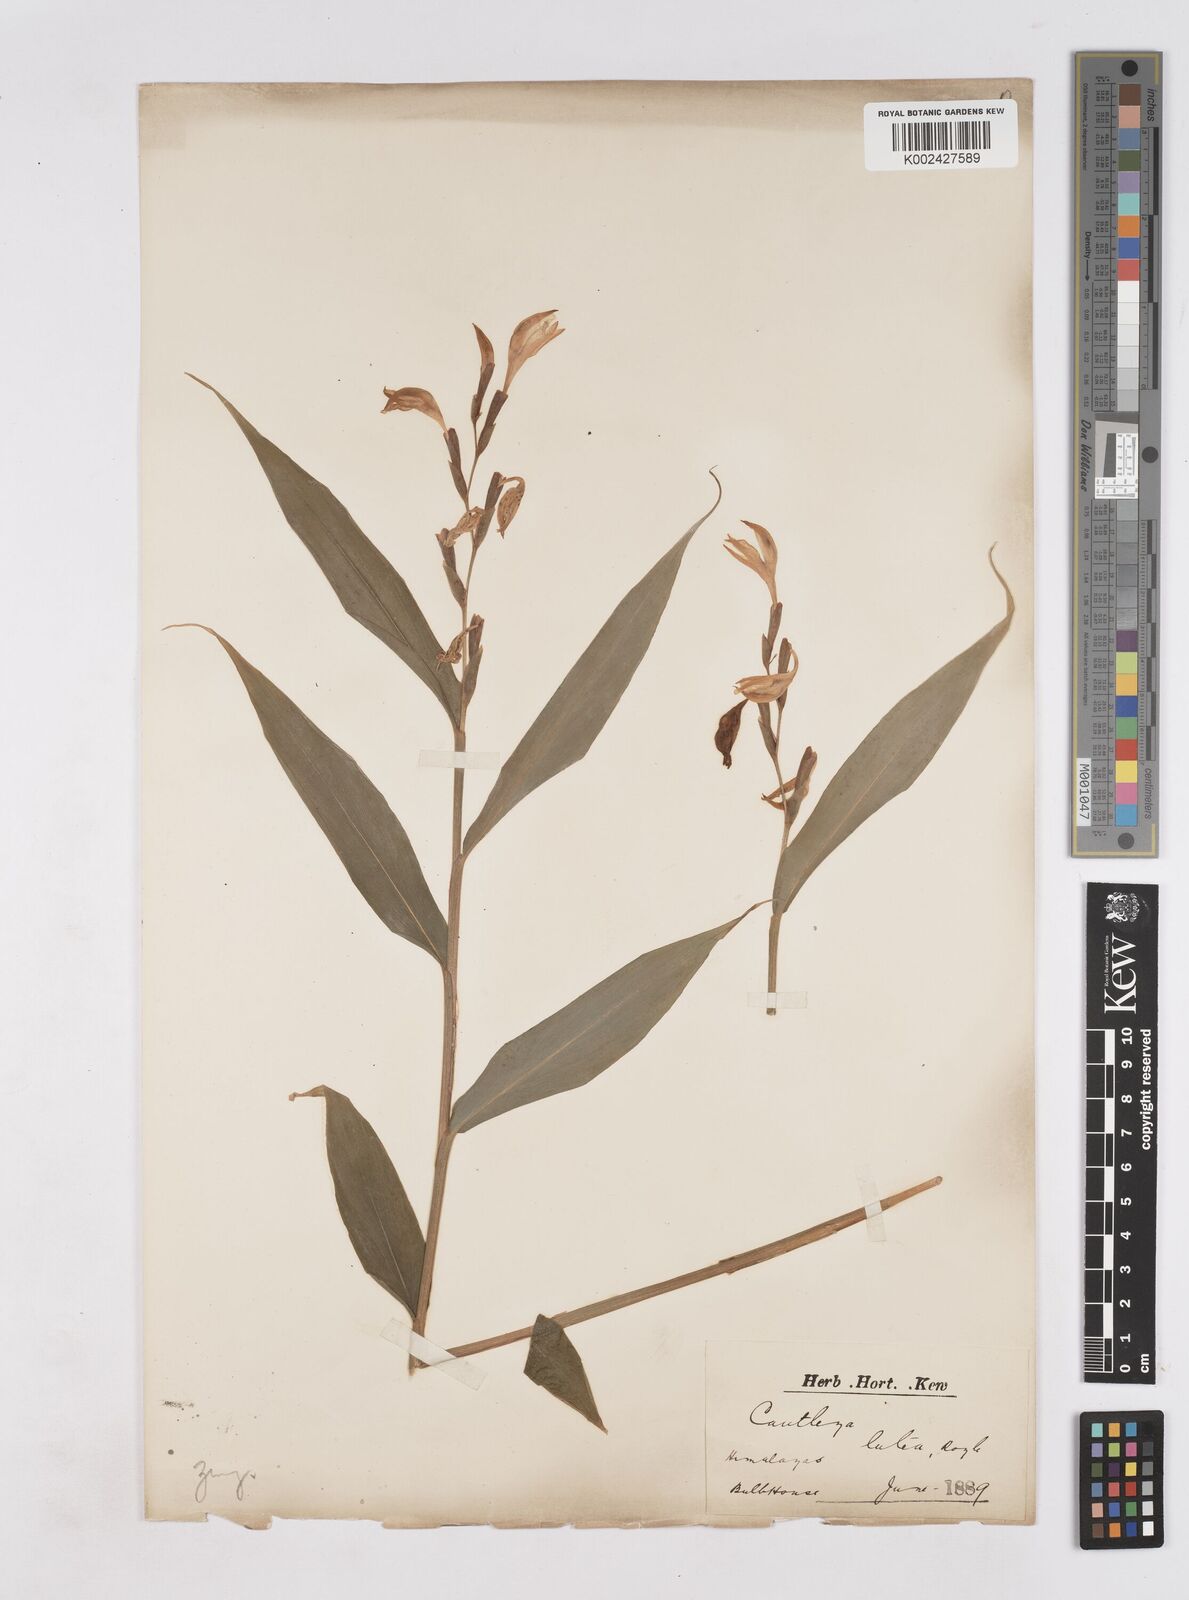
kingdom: Plantae
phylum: Tracheophyta
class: Liliopsida
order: Zingiberales
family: Zingiberaceae
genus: Cautleya
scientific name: Cautleya gracilis
